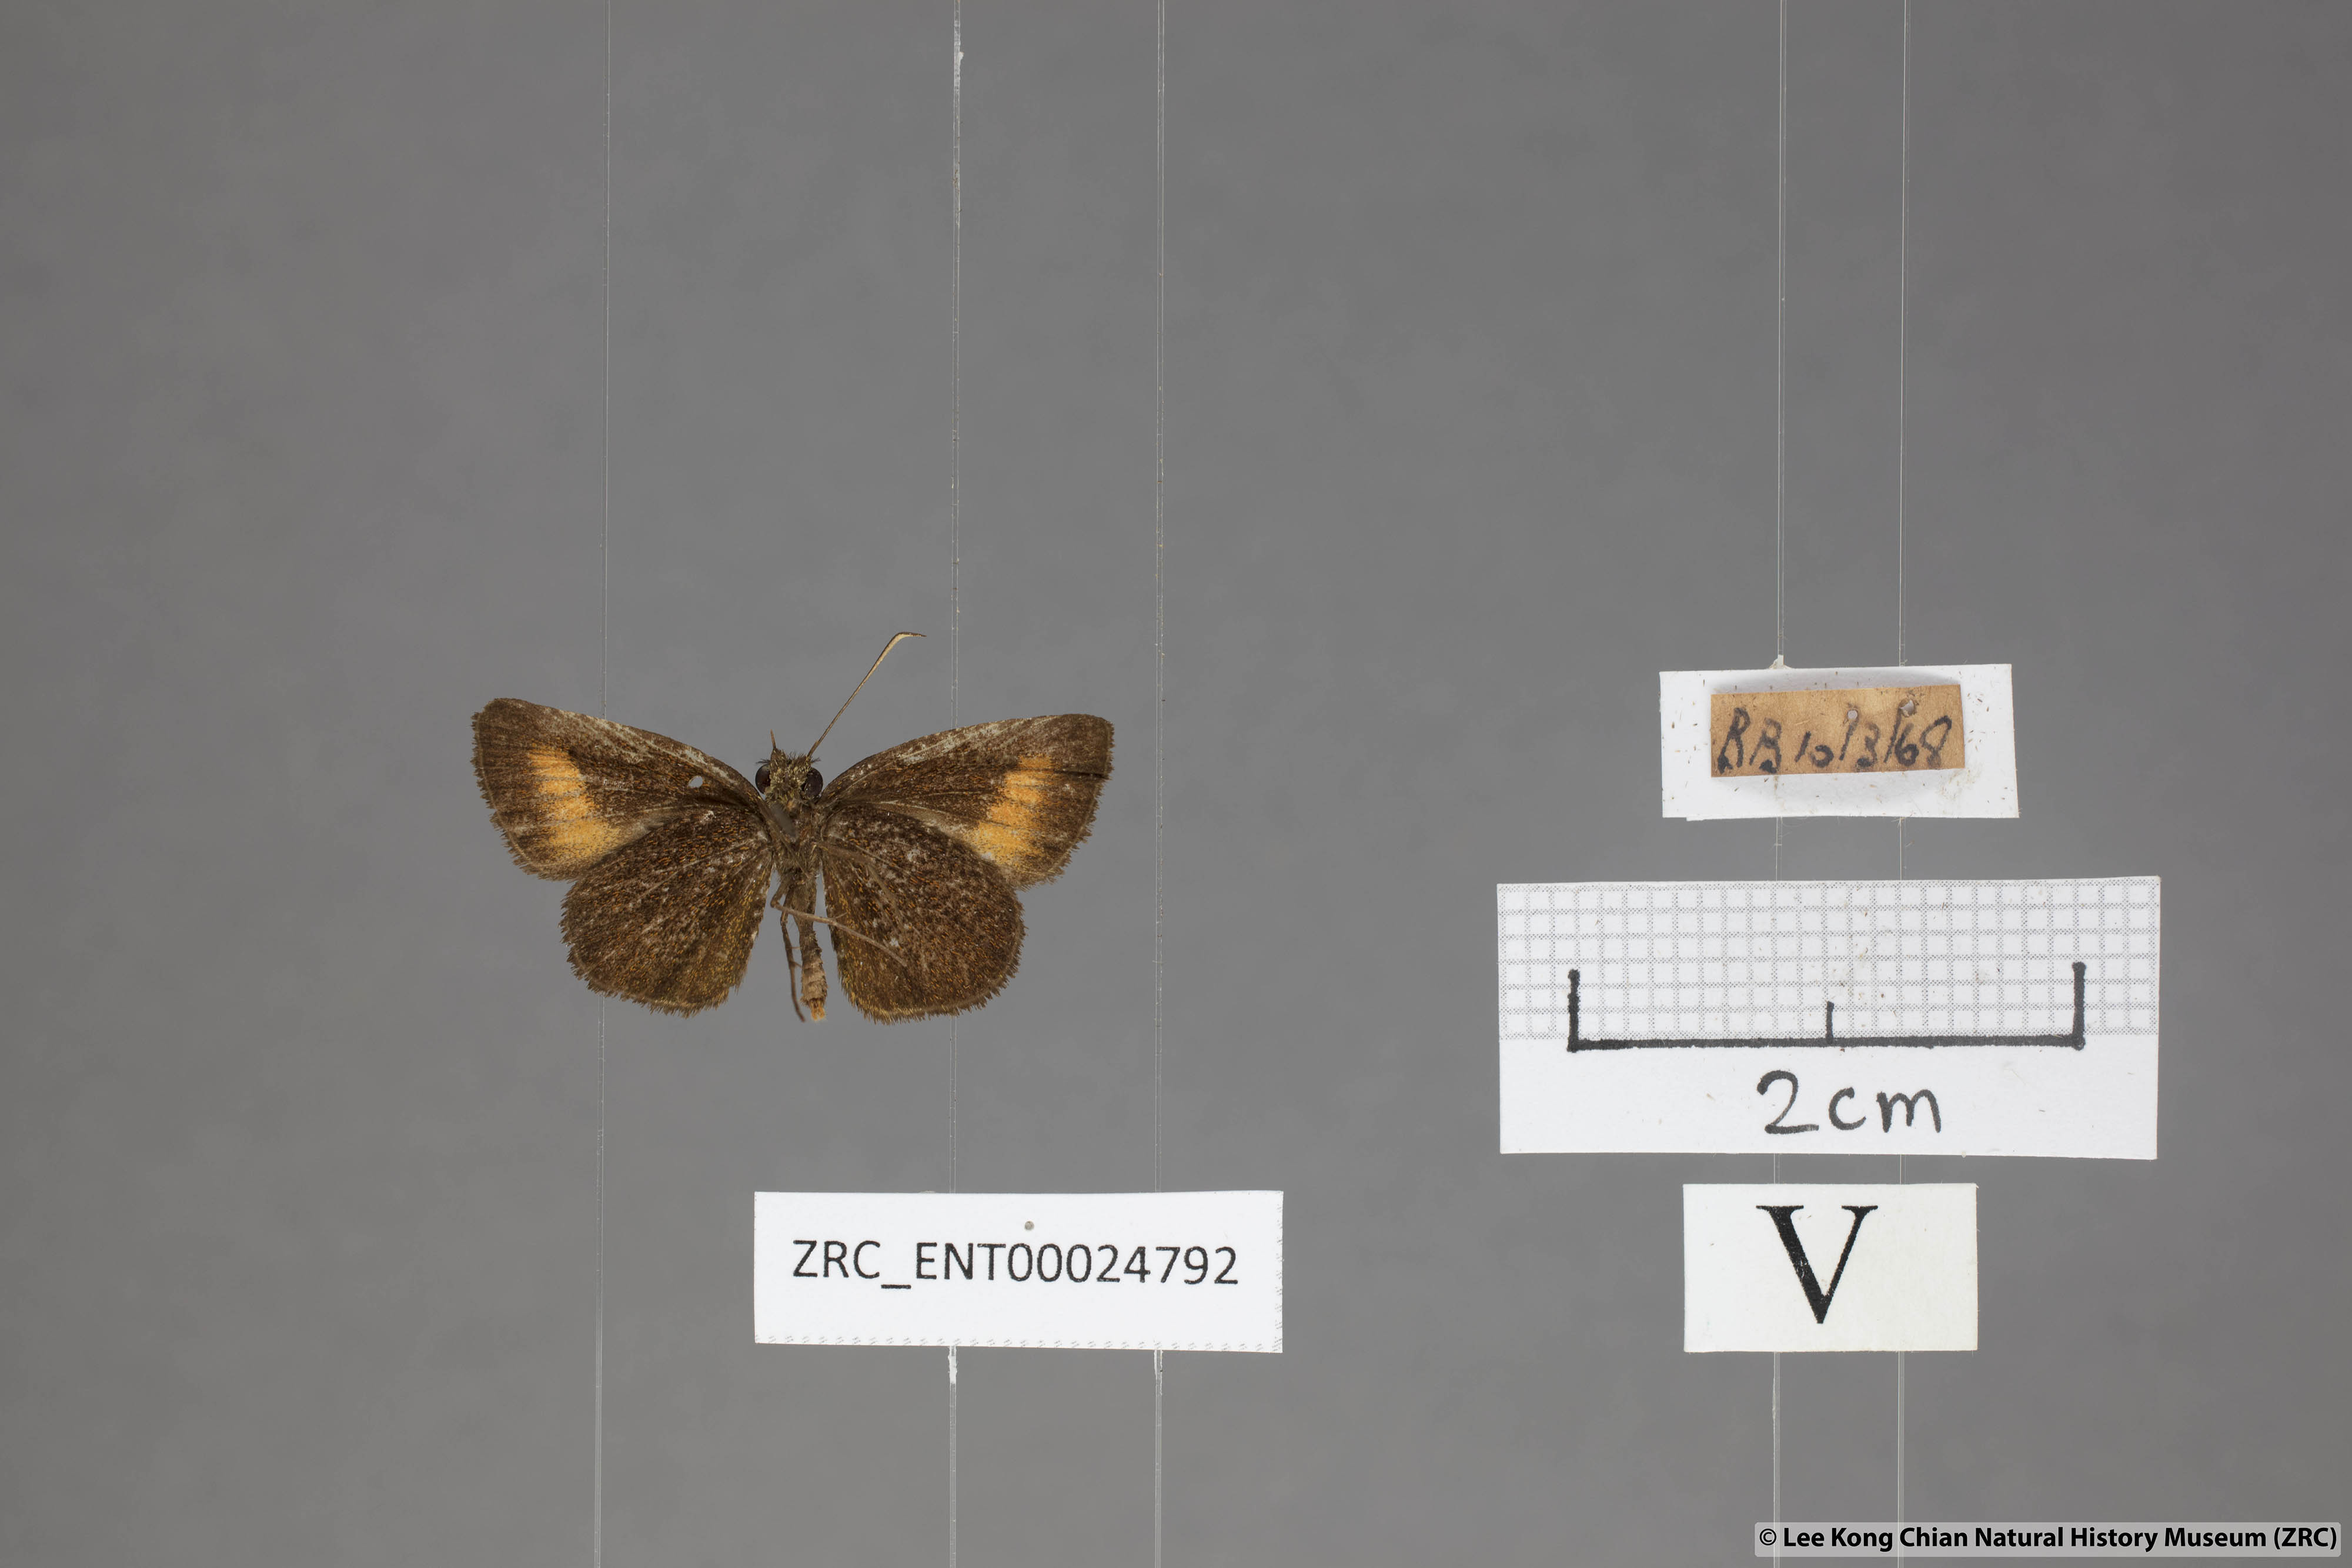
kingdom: Animalia
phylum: Arthropoda
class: Insecta
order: Lepidoptera
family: Hesperiidae
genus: Iambrix
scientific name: Iambrix Idmon obliquans
